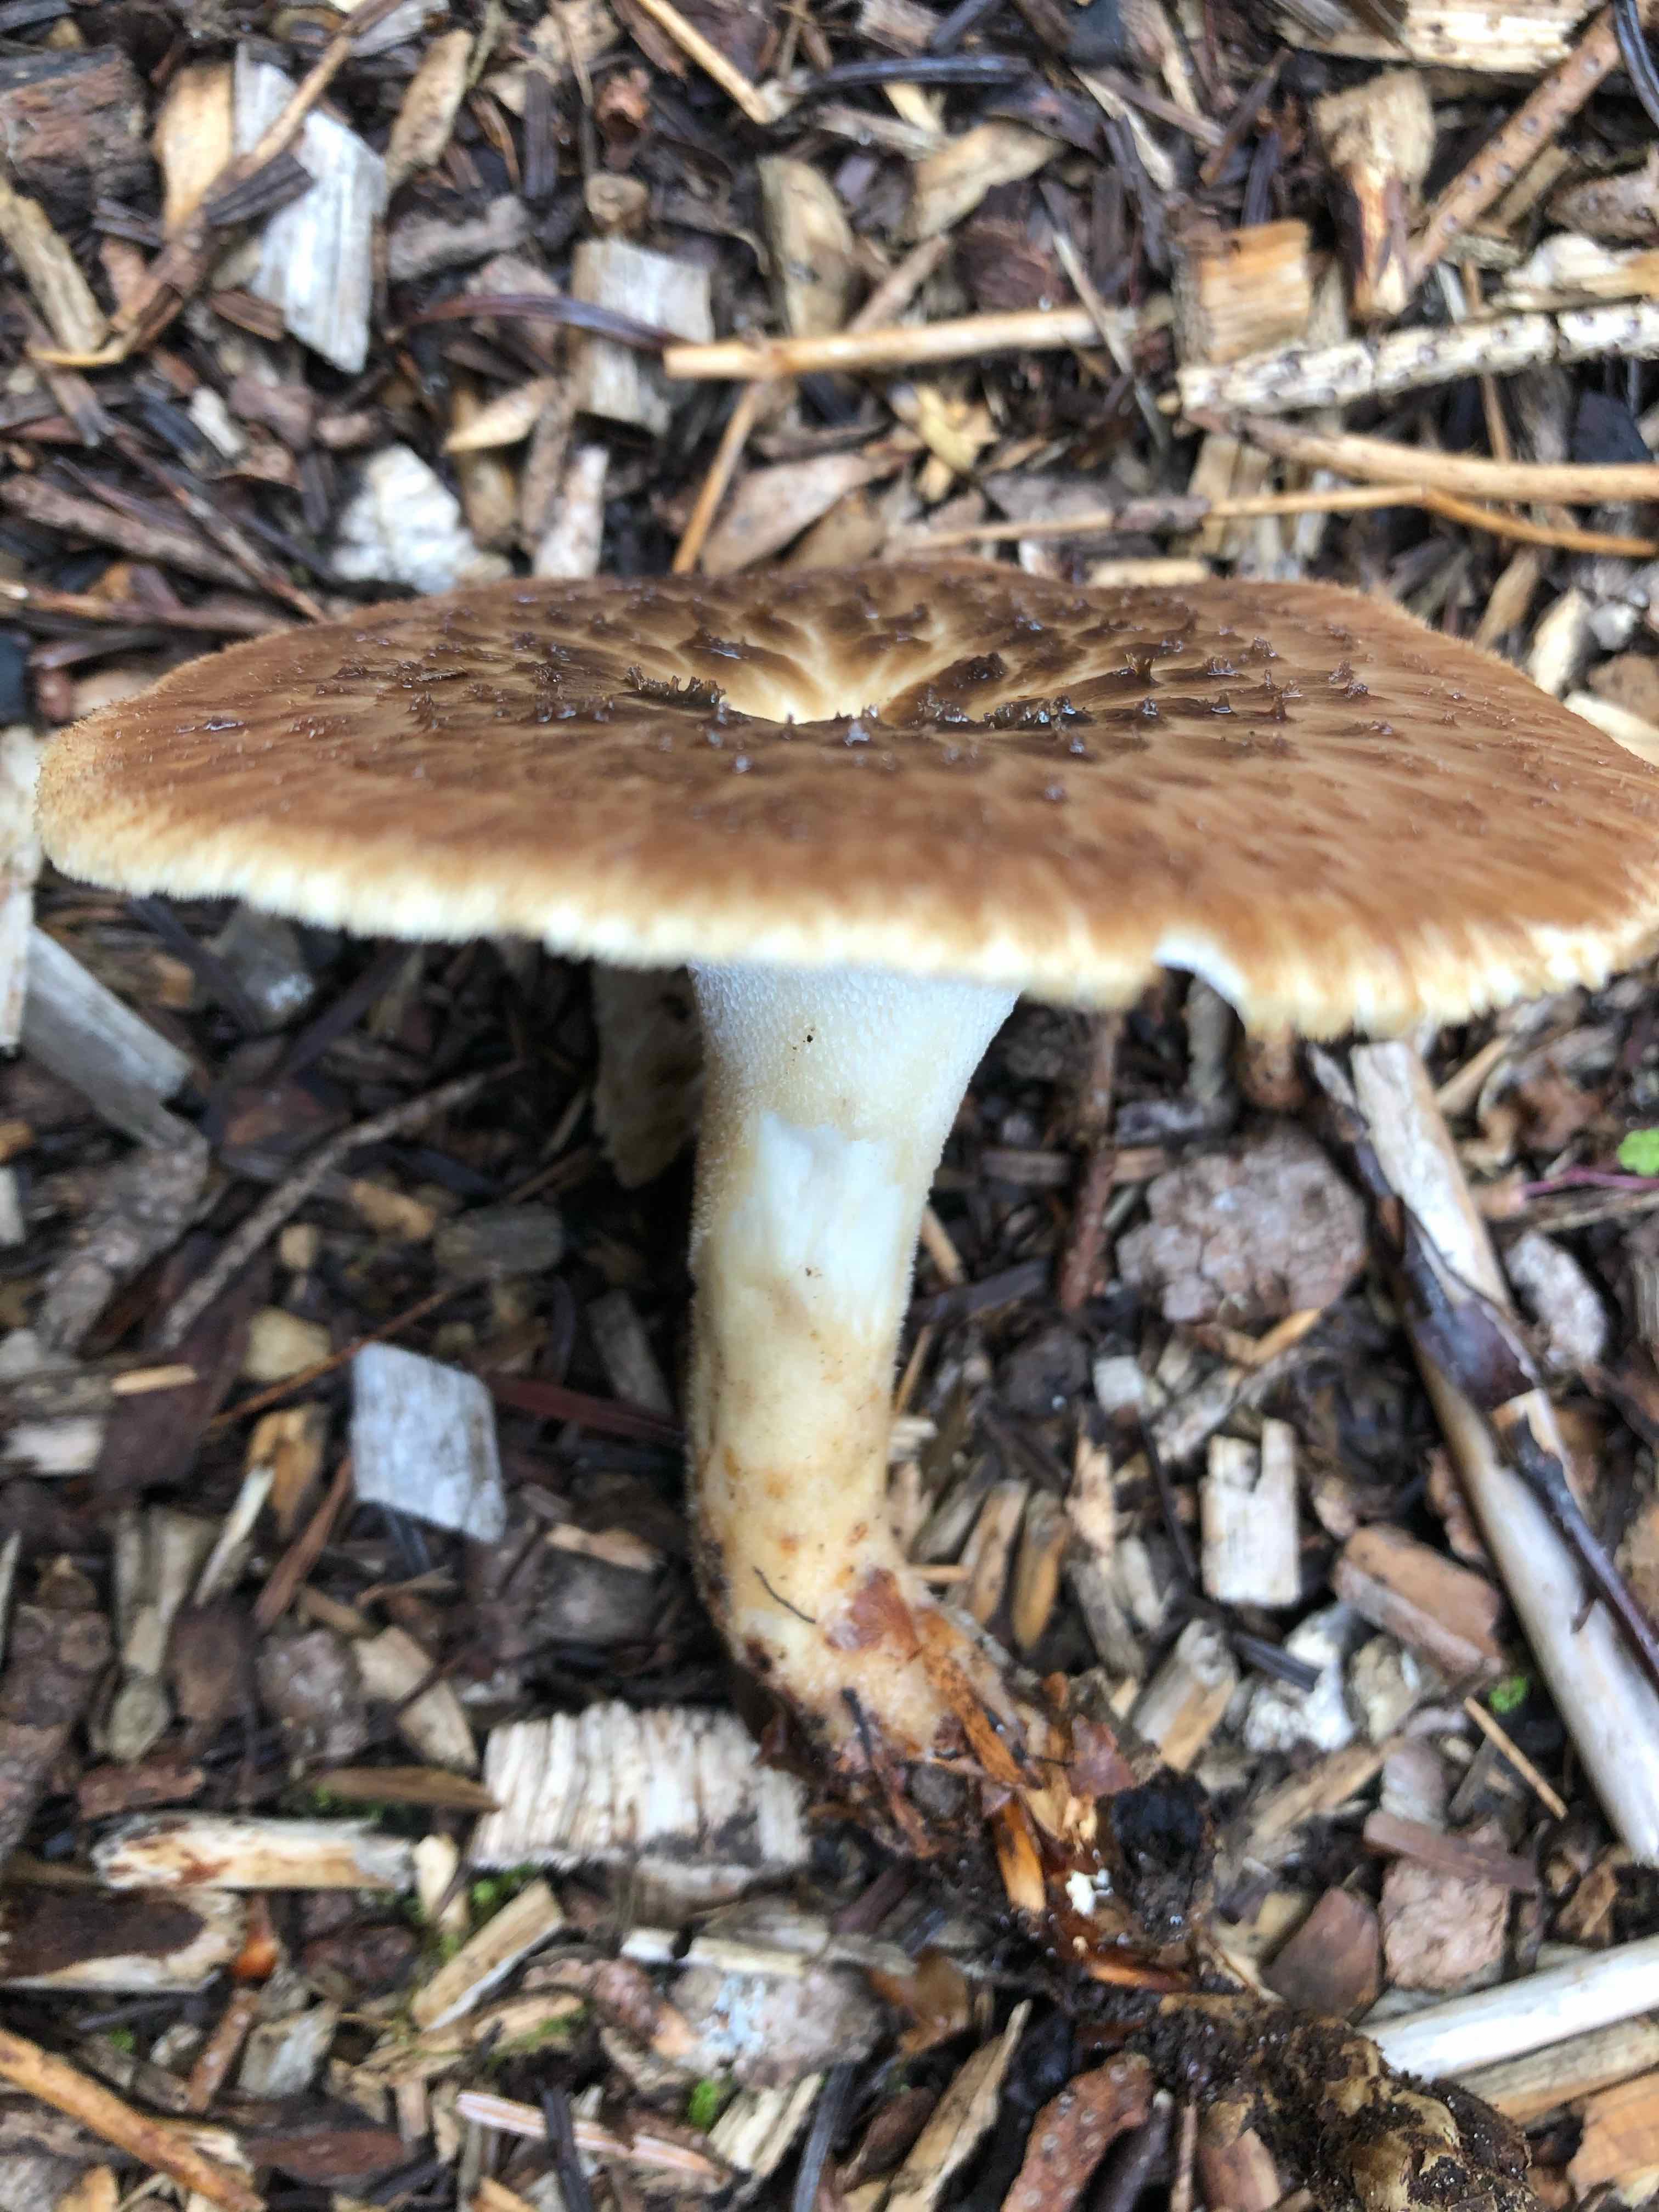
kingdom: Fungi
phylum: Basidiomycota
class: Agaricomycetes
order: Polyporales
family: Polyporaceae
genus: Polyporus
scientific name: Polyporus tuberaster
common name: knoldet stilkporesvamp
